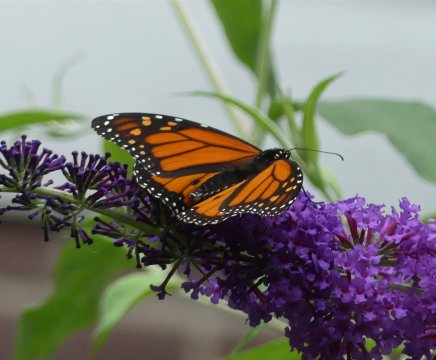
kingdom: Animalia
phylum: Arthropoda
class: Insecta
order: Lepidoptera
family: Nymphalidae
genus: Danaus
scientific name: Danaus plexippus
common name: Monarch
